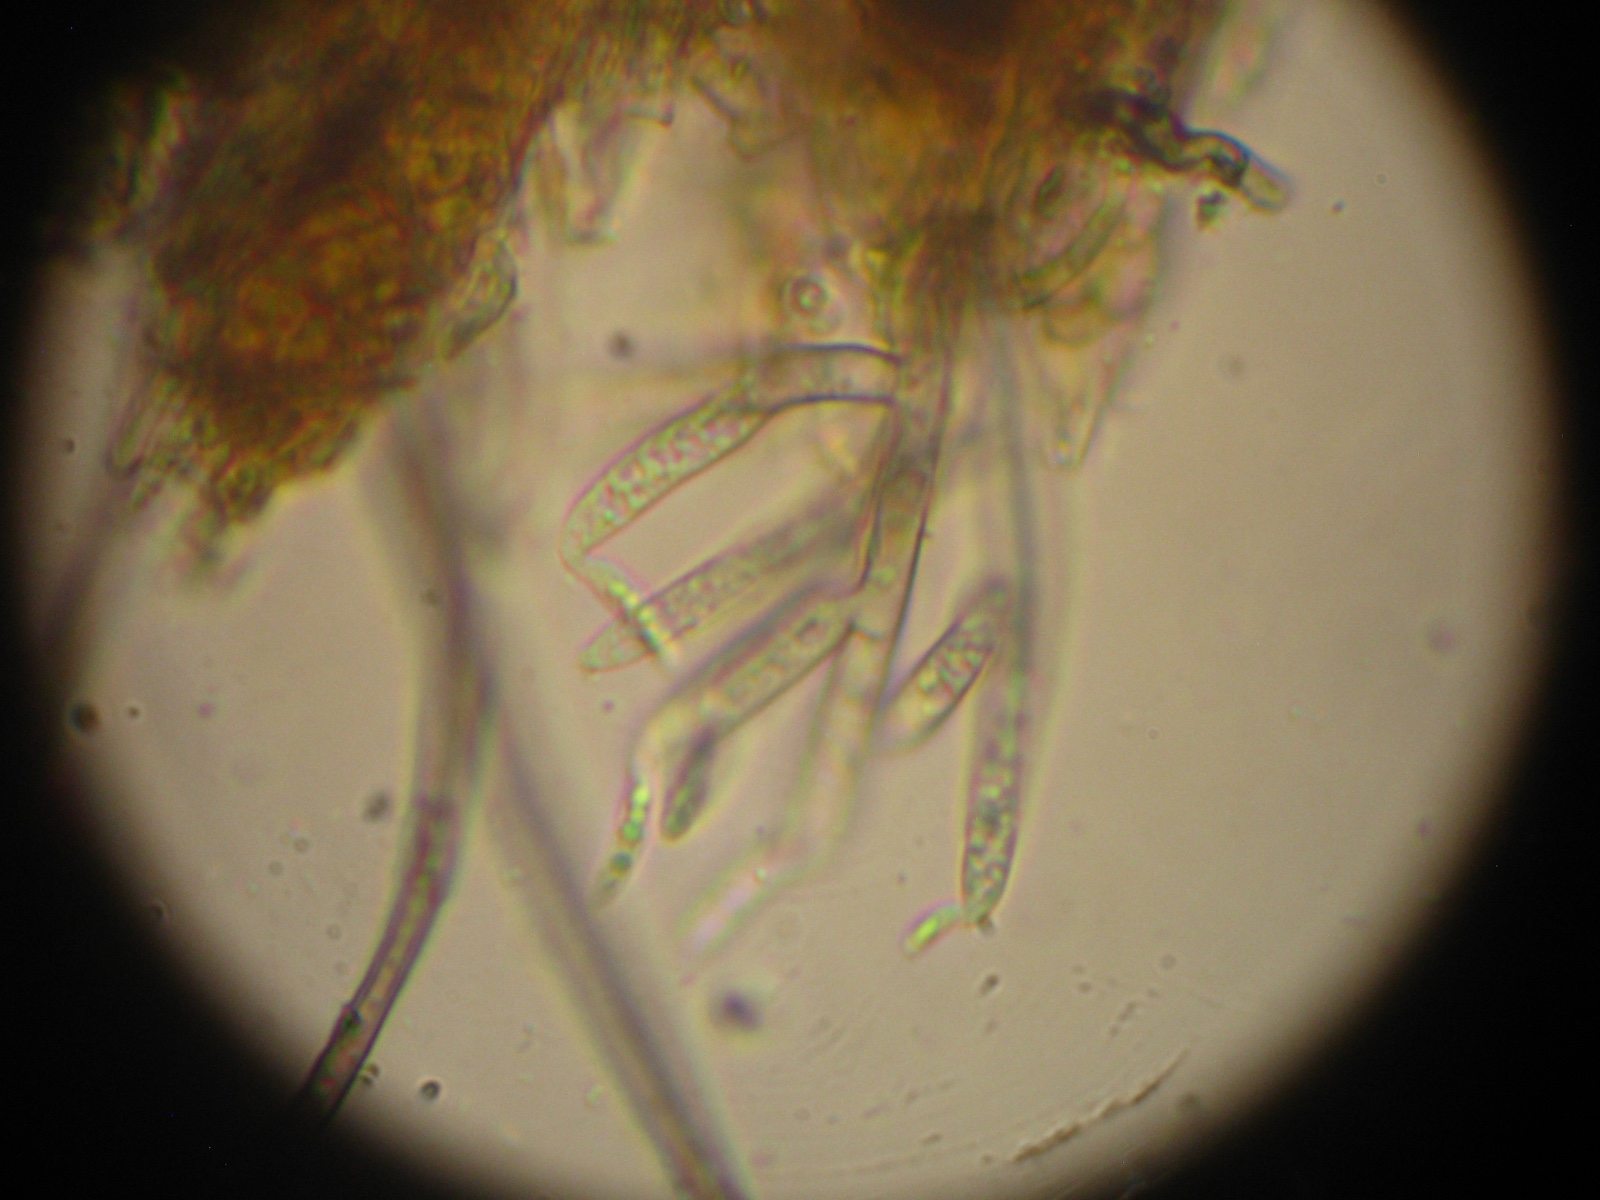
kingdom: Fungi
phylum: Ascomycota
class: Sordariomycetes
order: Chaetosphaeriales
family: Chaetosphaeriaceae
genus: Dictyochaeta
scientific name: Dictyochaeta callimorpha
